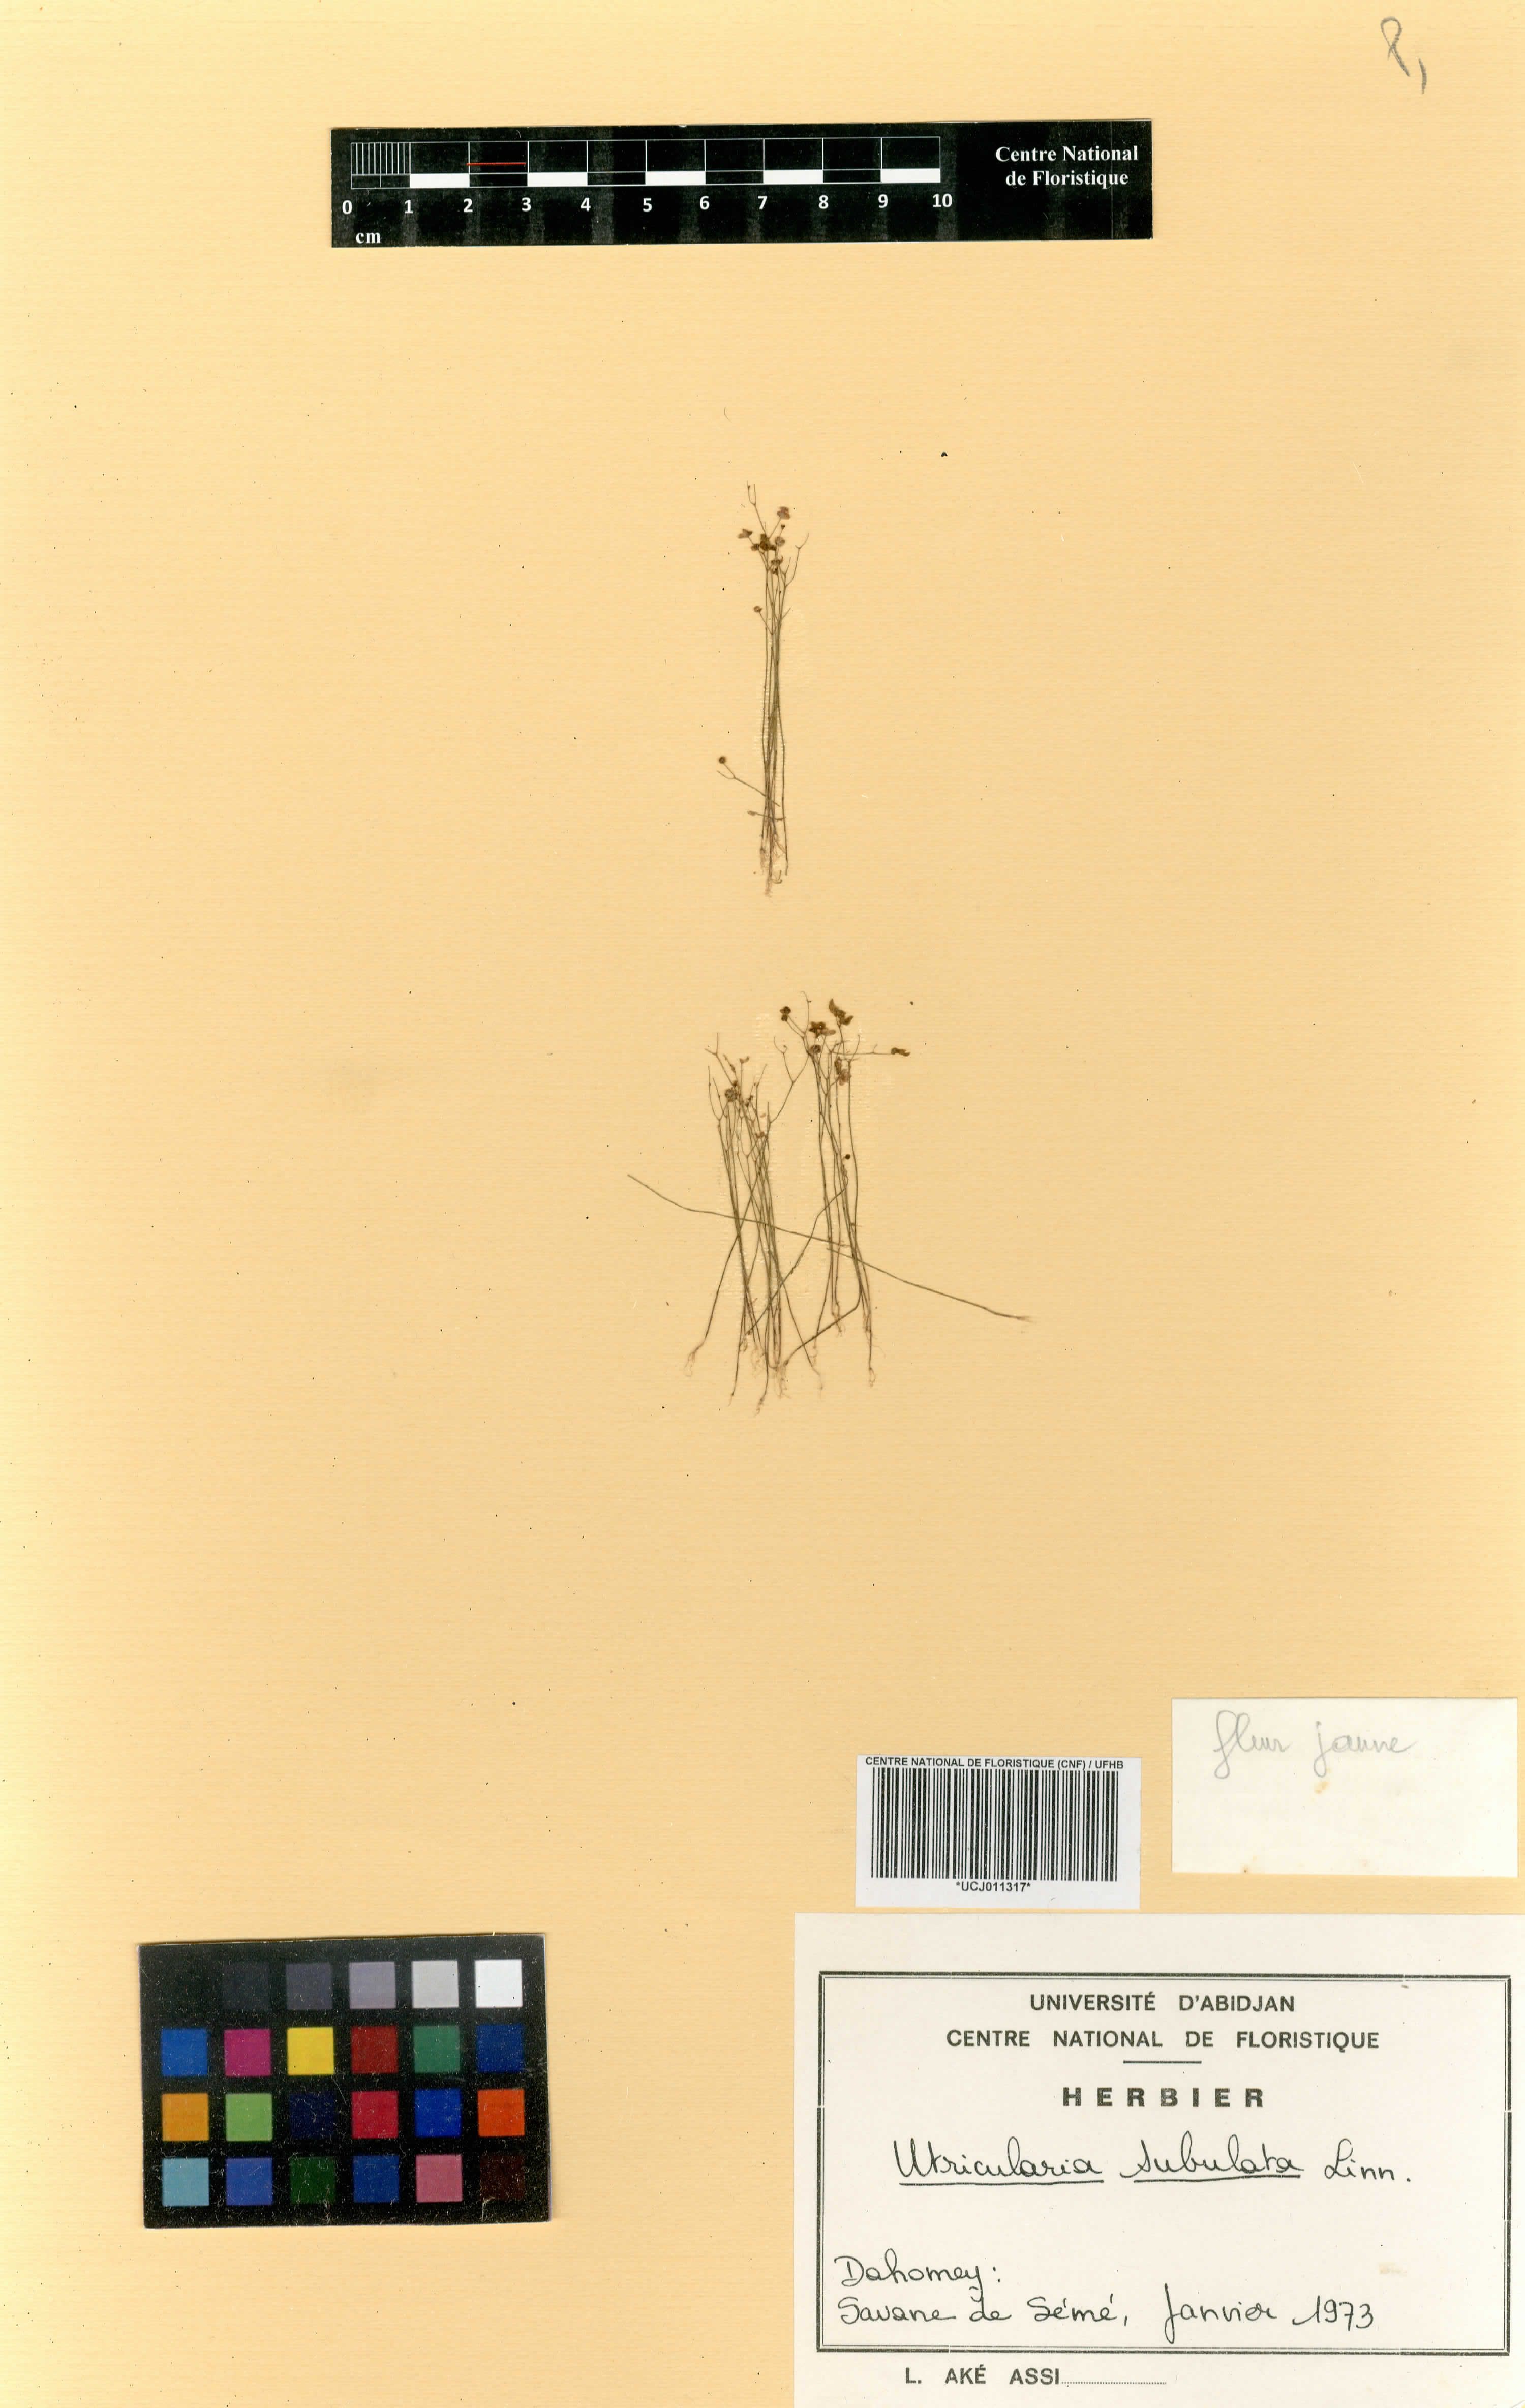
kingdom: Plantae
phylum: Tracheophyta
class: Liliopsida
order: Asparagales
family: Asparagaceae
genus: Albuca
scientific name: Albuca nigritana
